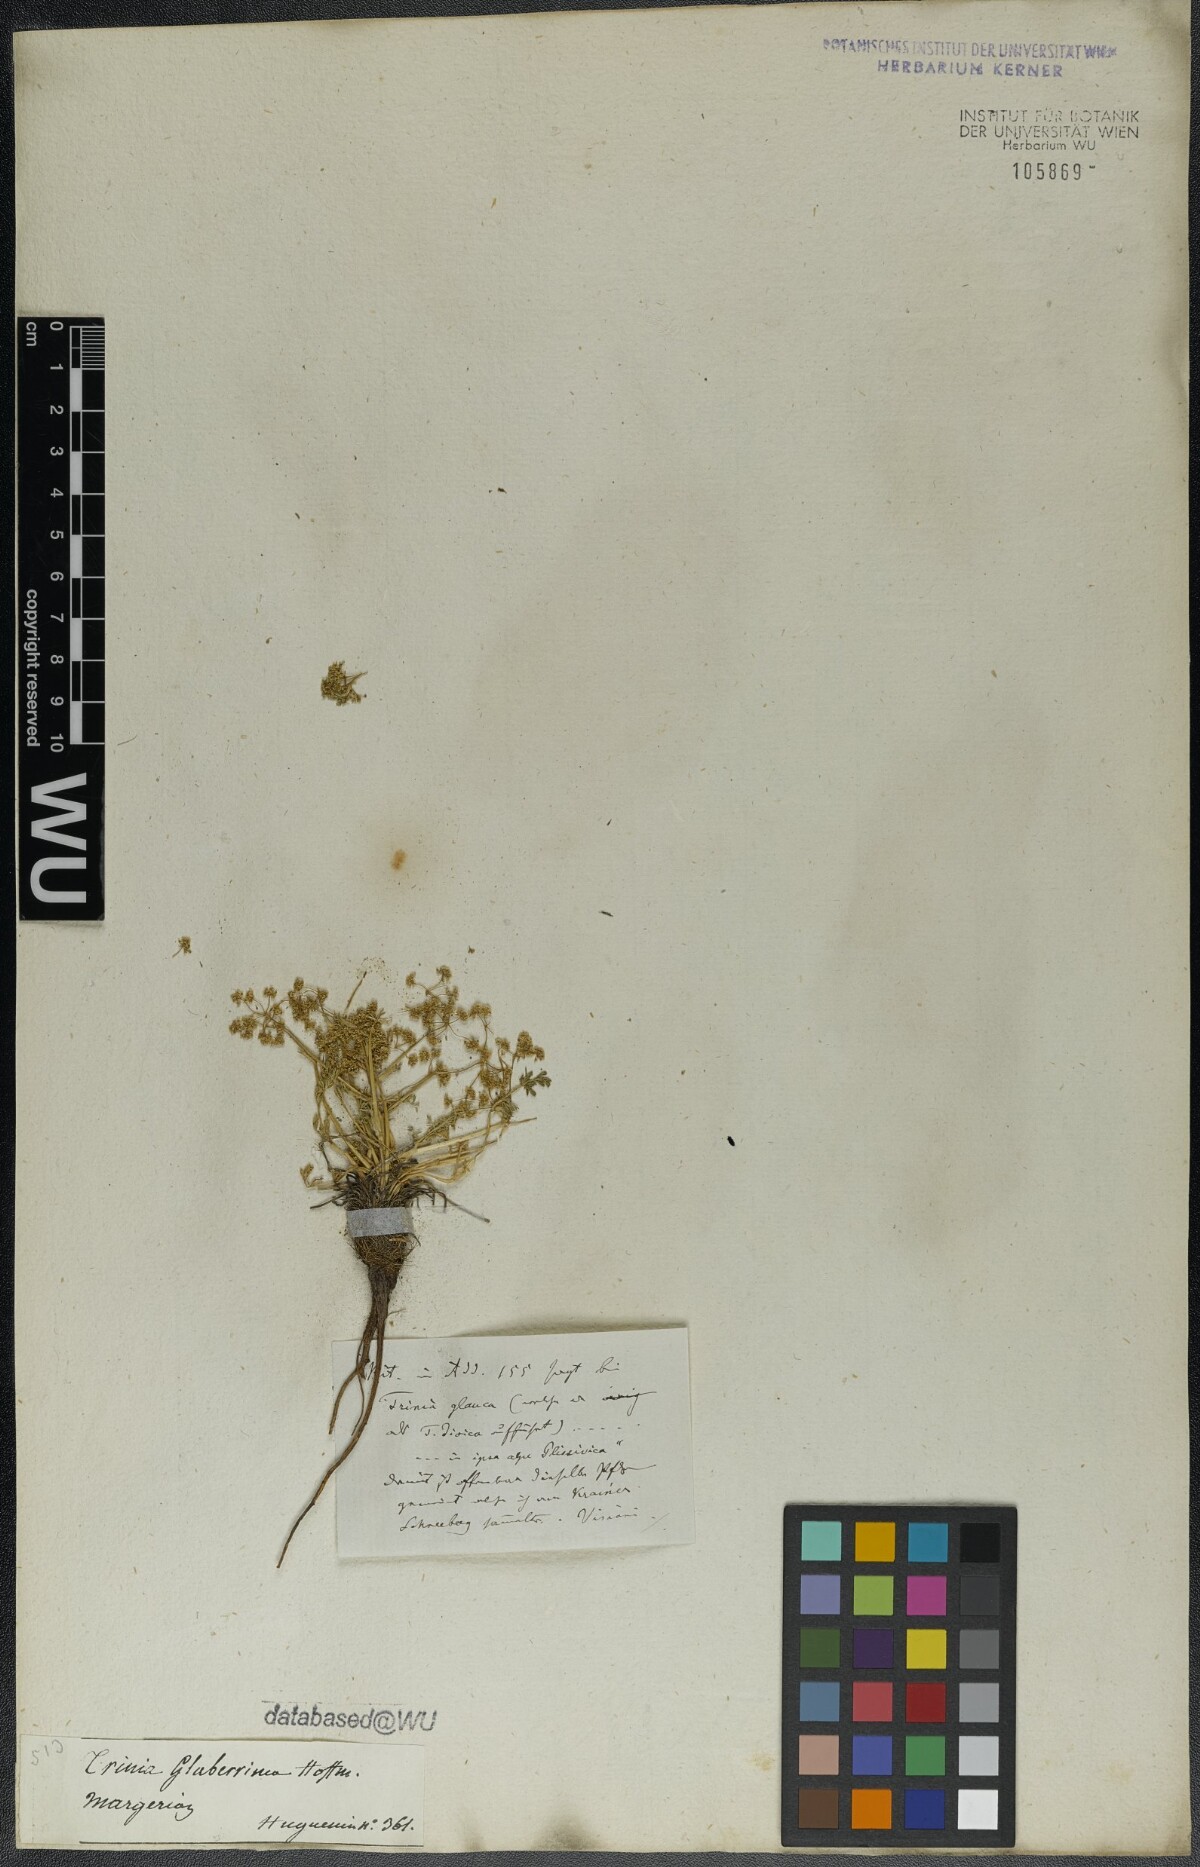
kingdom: Plantae
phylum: Tracheophyta
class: Magnoliopsida
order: Apiales
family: Apiaceae
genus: Trinia
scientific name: Trinia dalechampii
